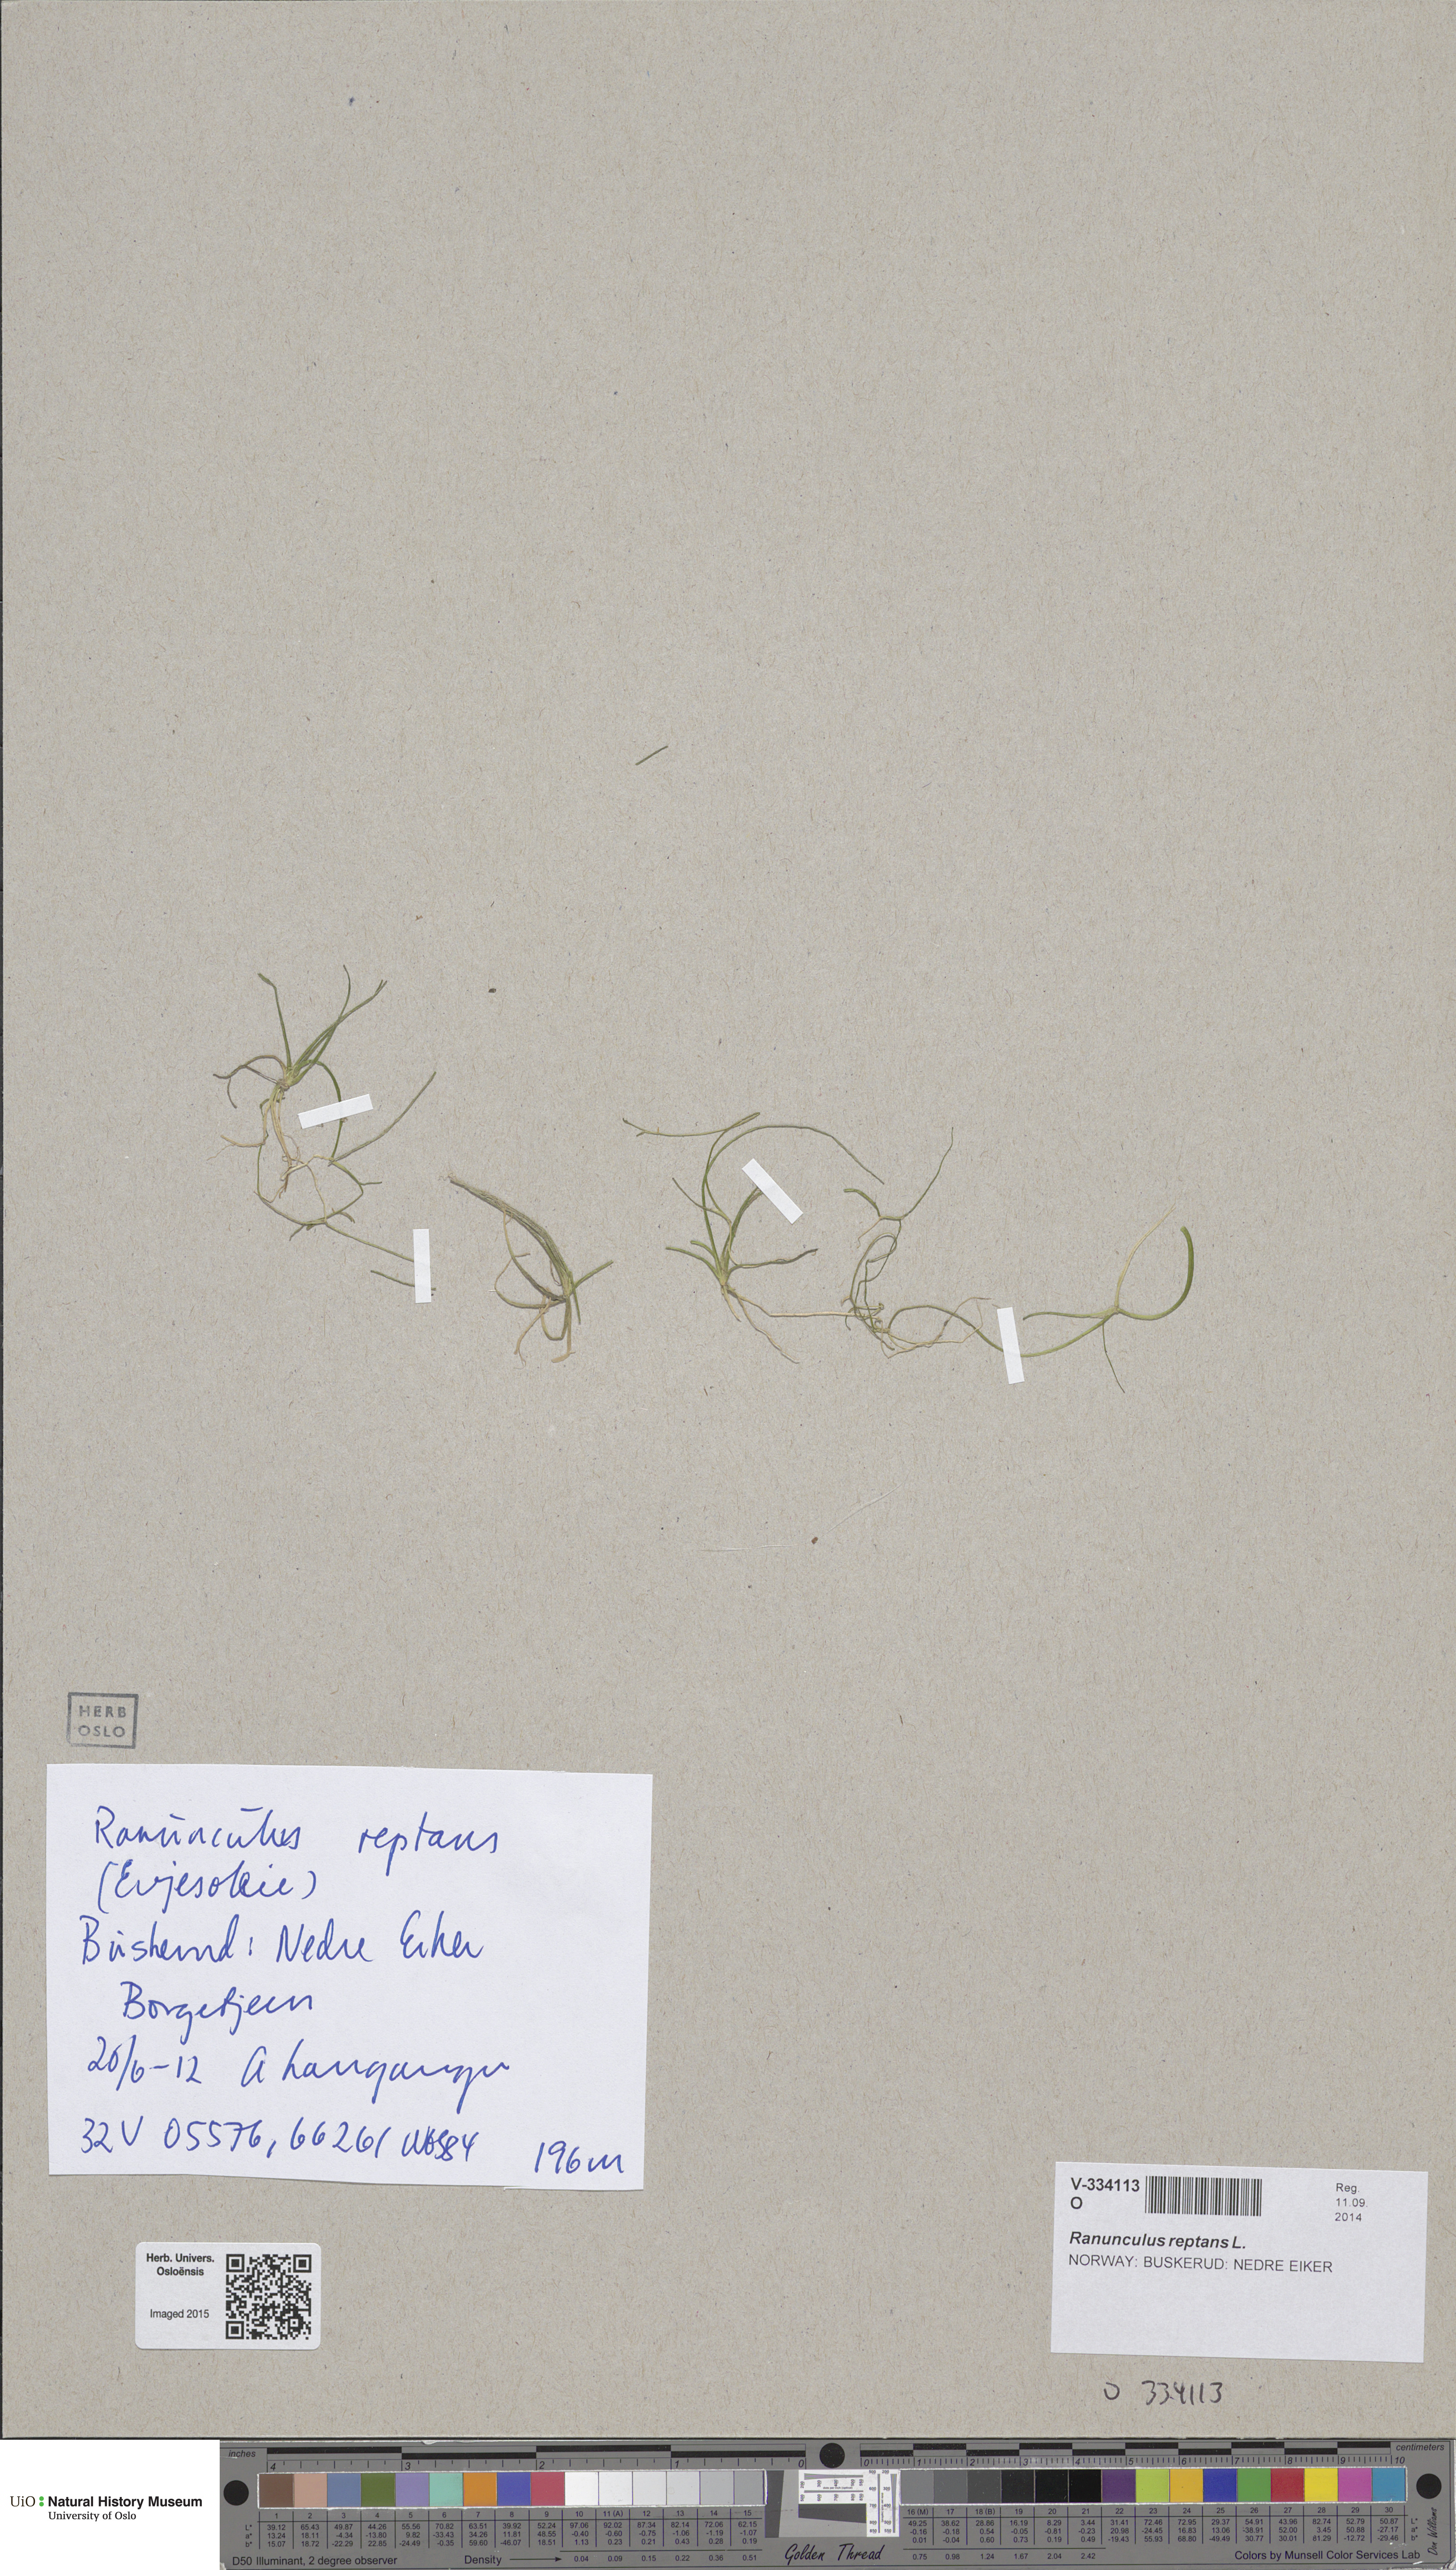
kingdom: Plantae
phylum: Tracheophyta
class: Magnoliopsida
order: Ranunculales
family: Ranunculaceae
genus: Ranunculus
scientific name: Ranunculus reptans
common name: Creeping spearwort
